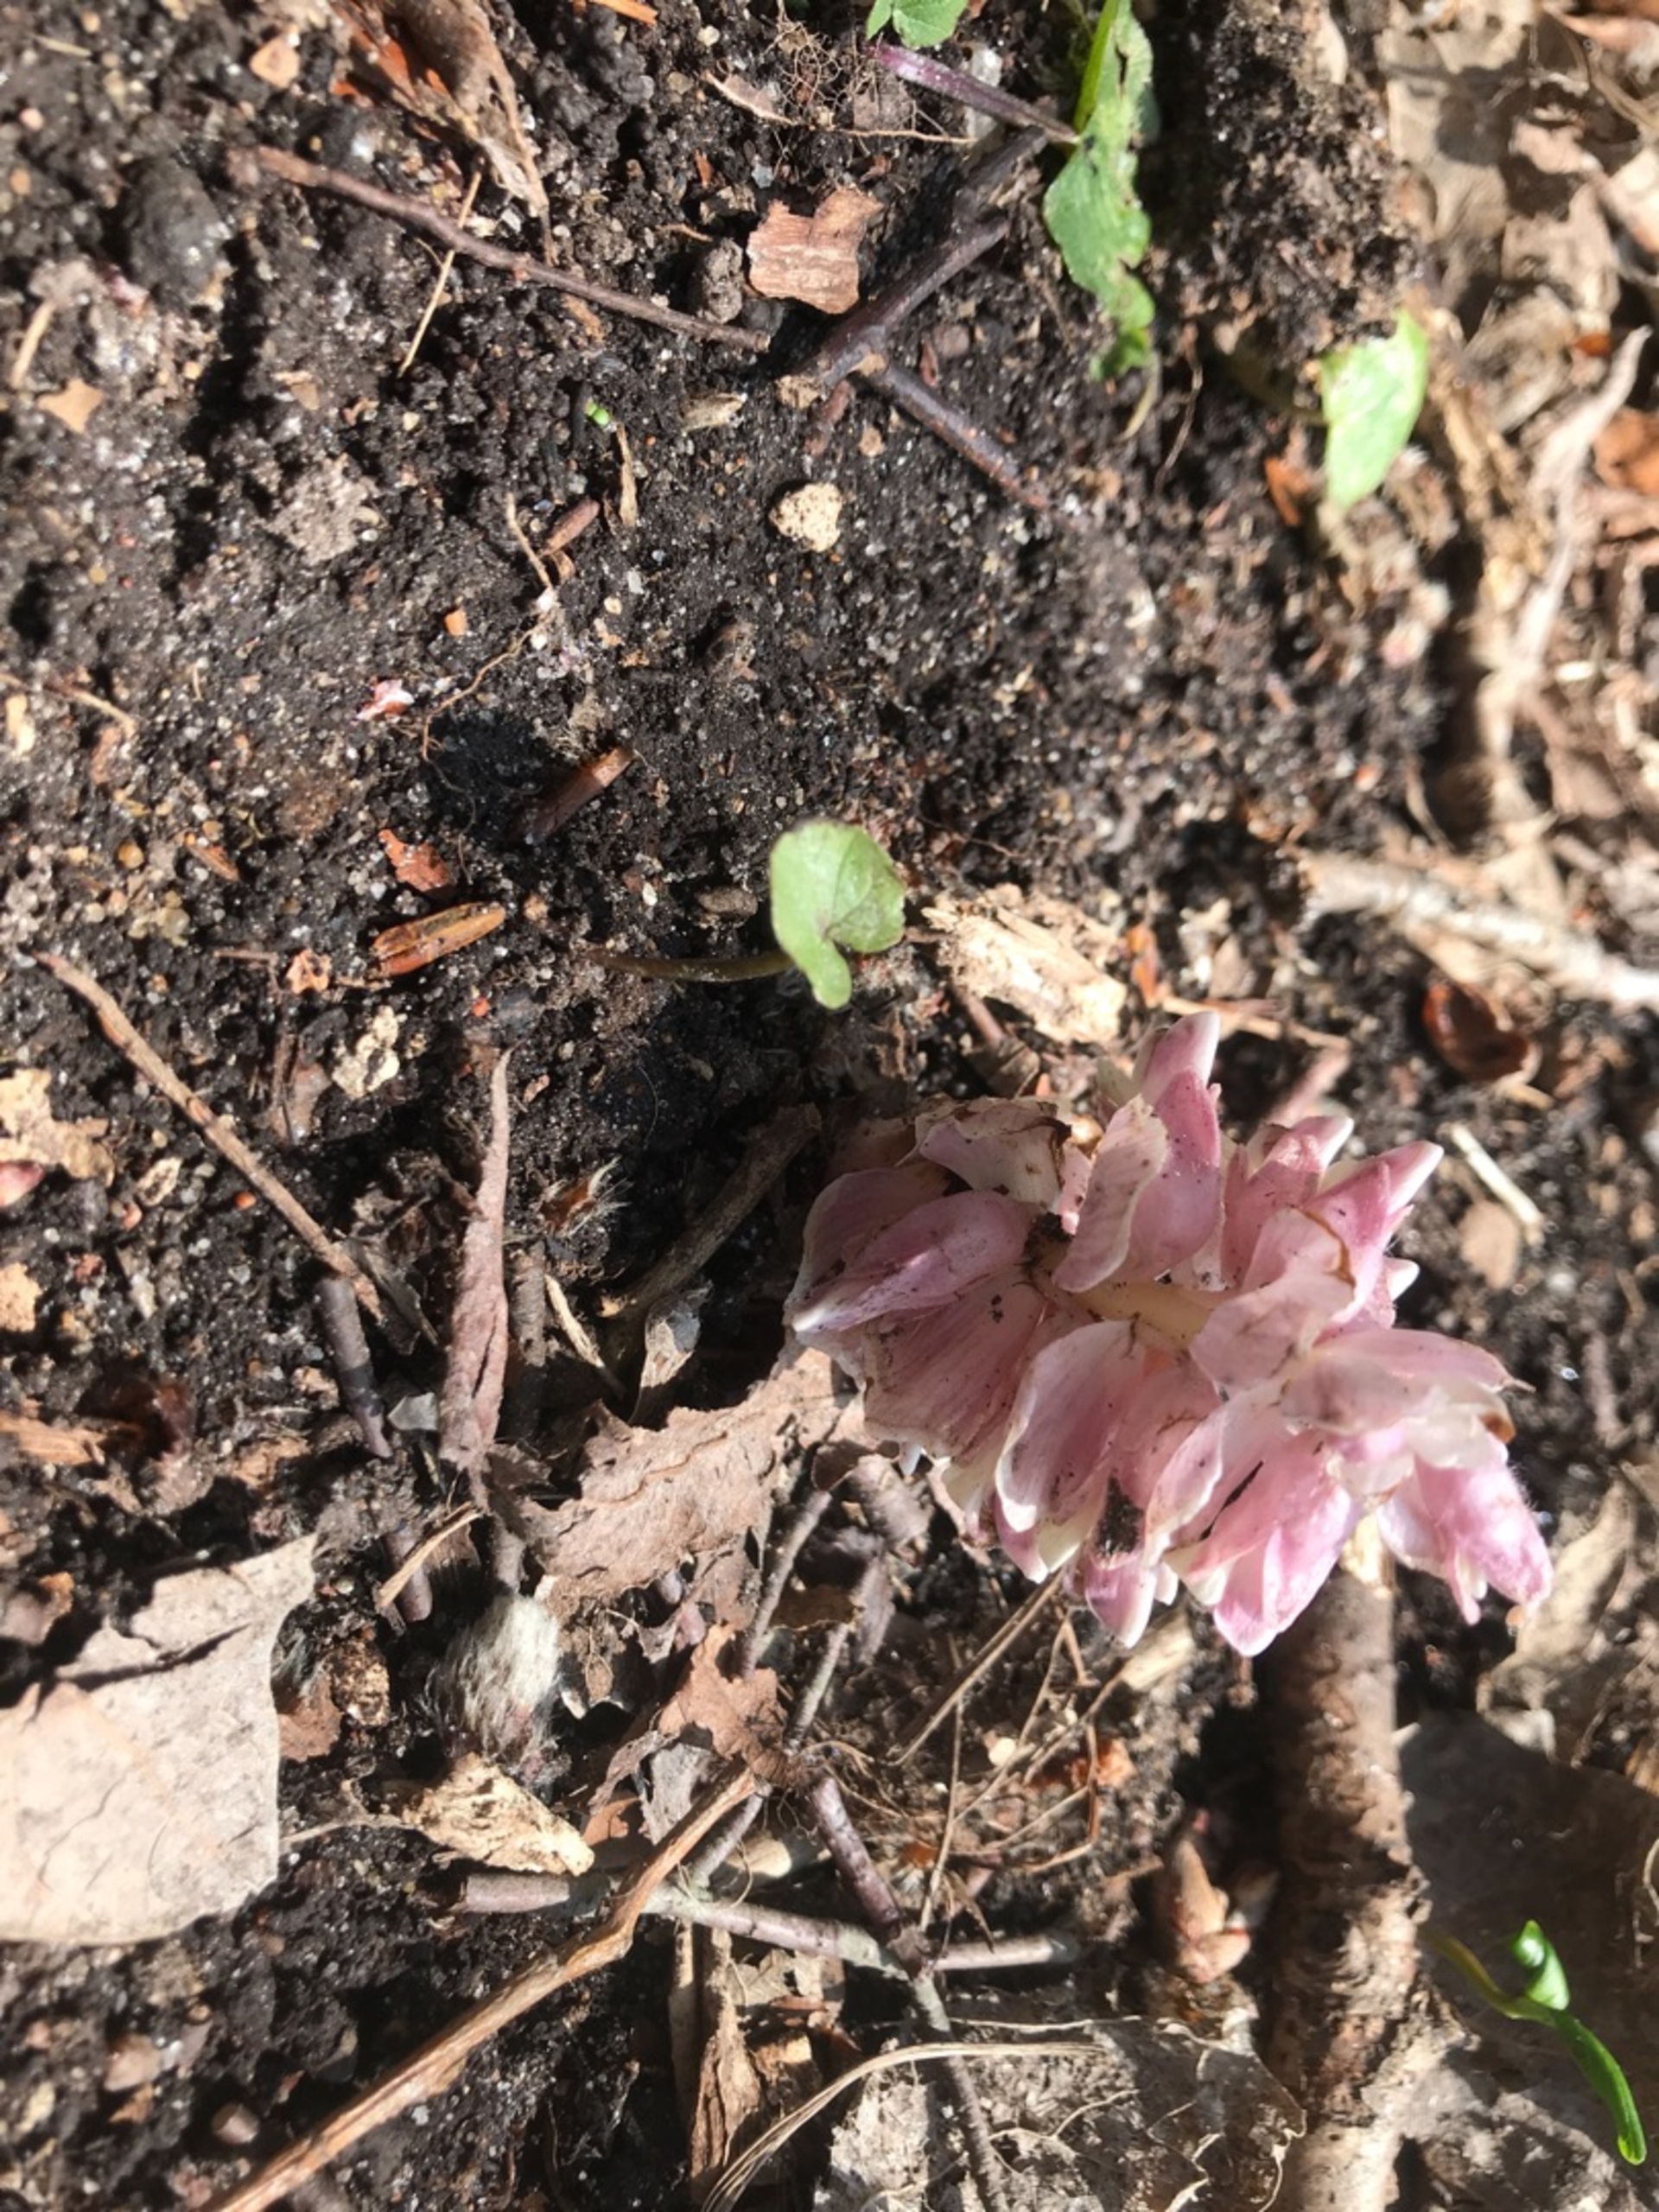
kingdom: Plantae
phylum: Tracheophyta
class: Magnoliopsida
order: Lamiales
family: Orobanchaceae
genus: Lathraea
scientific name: Lathraea squamaria
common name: Skælrod
